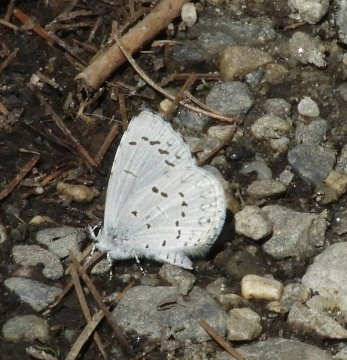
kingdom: Animalia
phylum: Arthropoda
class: Insecta
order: Lepidoptera
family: Lycaenidae
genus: Celastrina
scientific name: Celastrina lucia
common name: Northern Spring Azure
